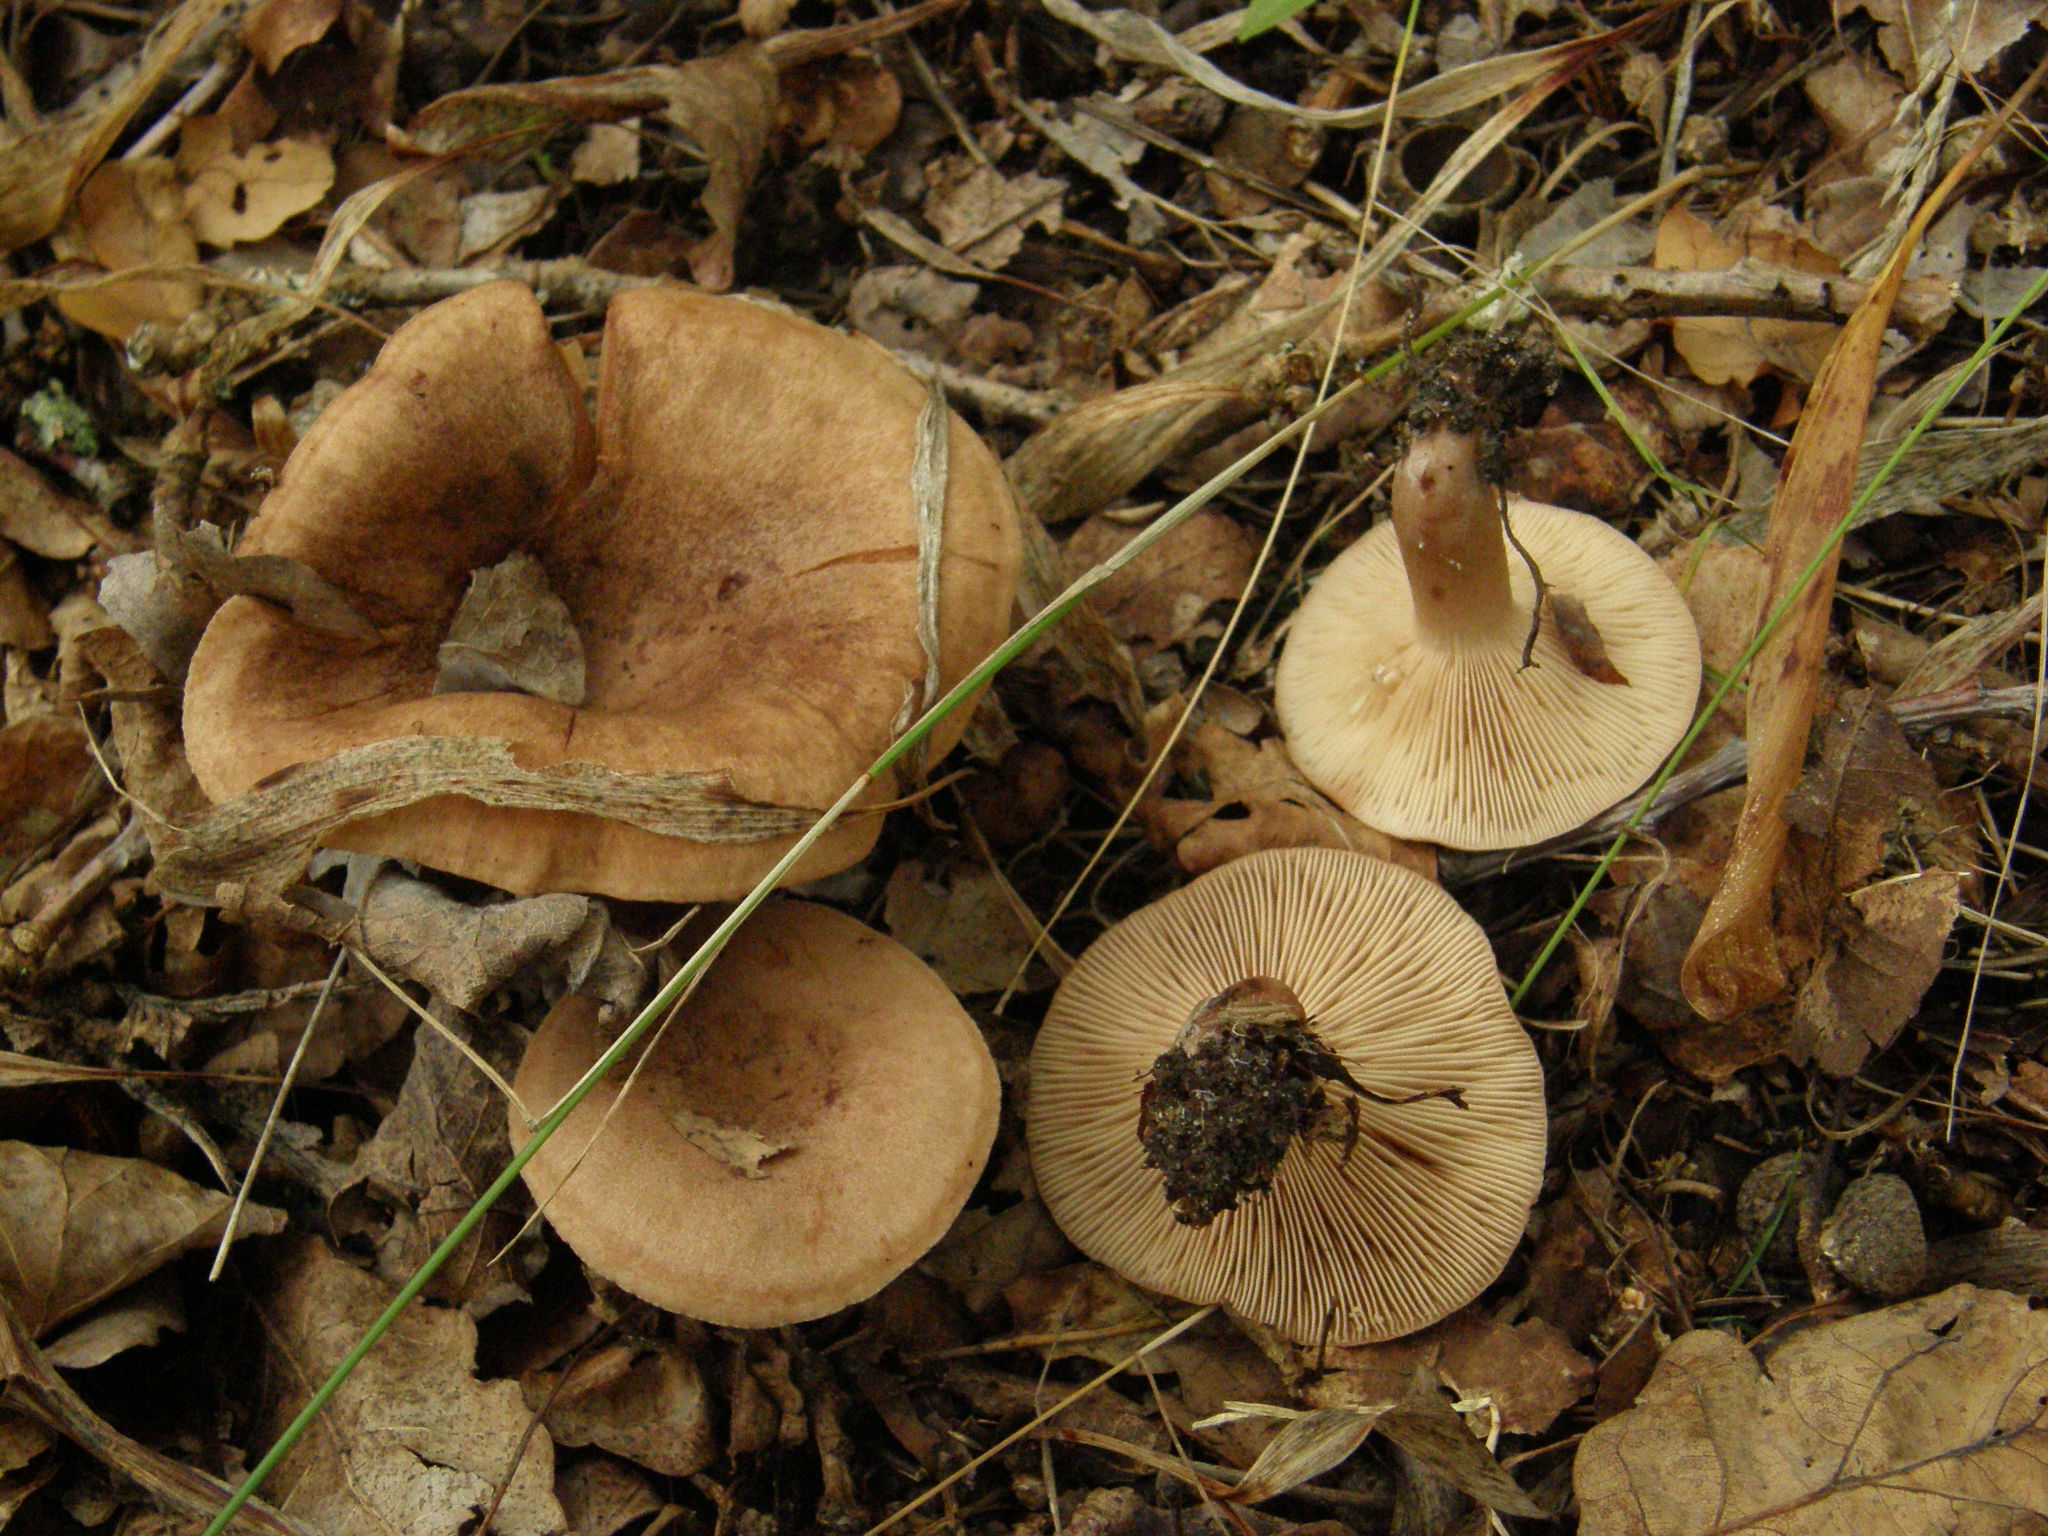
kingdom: Fungi
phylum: Basidiomycota
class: Agaricomycetes
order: Russulales
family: Russulaceae
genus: Lactarius
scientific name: Lactarius quietus
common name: Oak milk-cap
